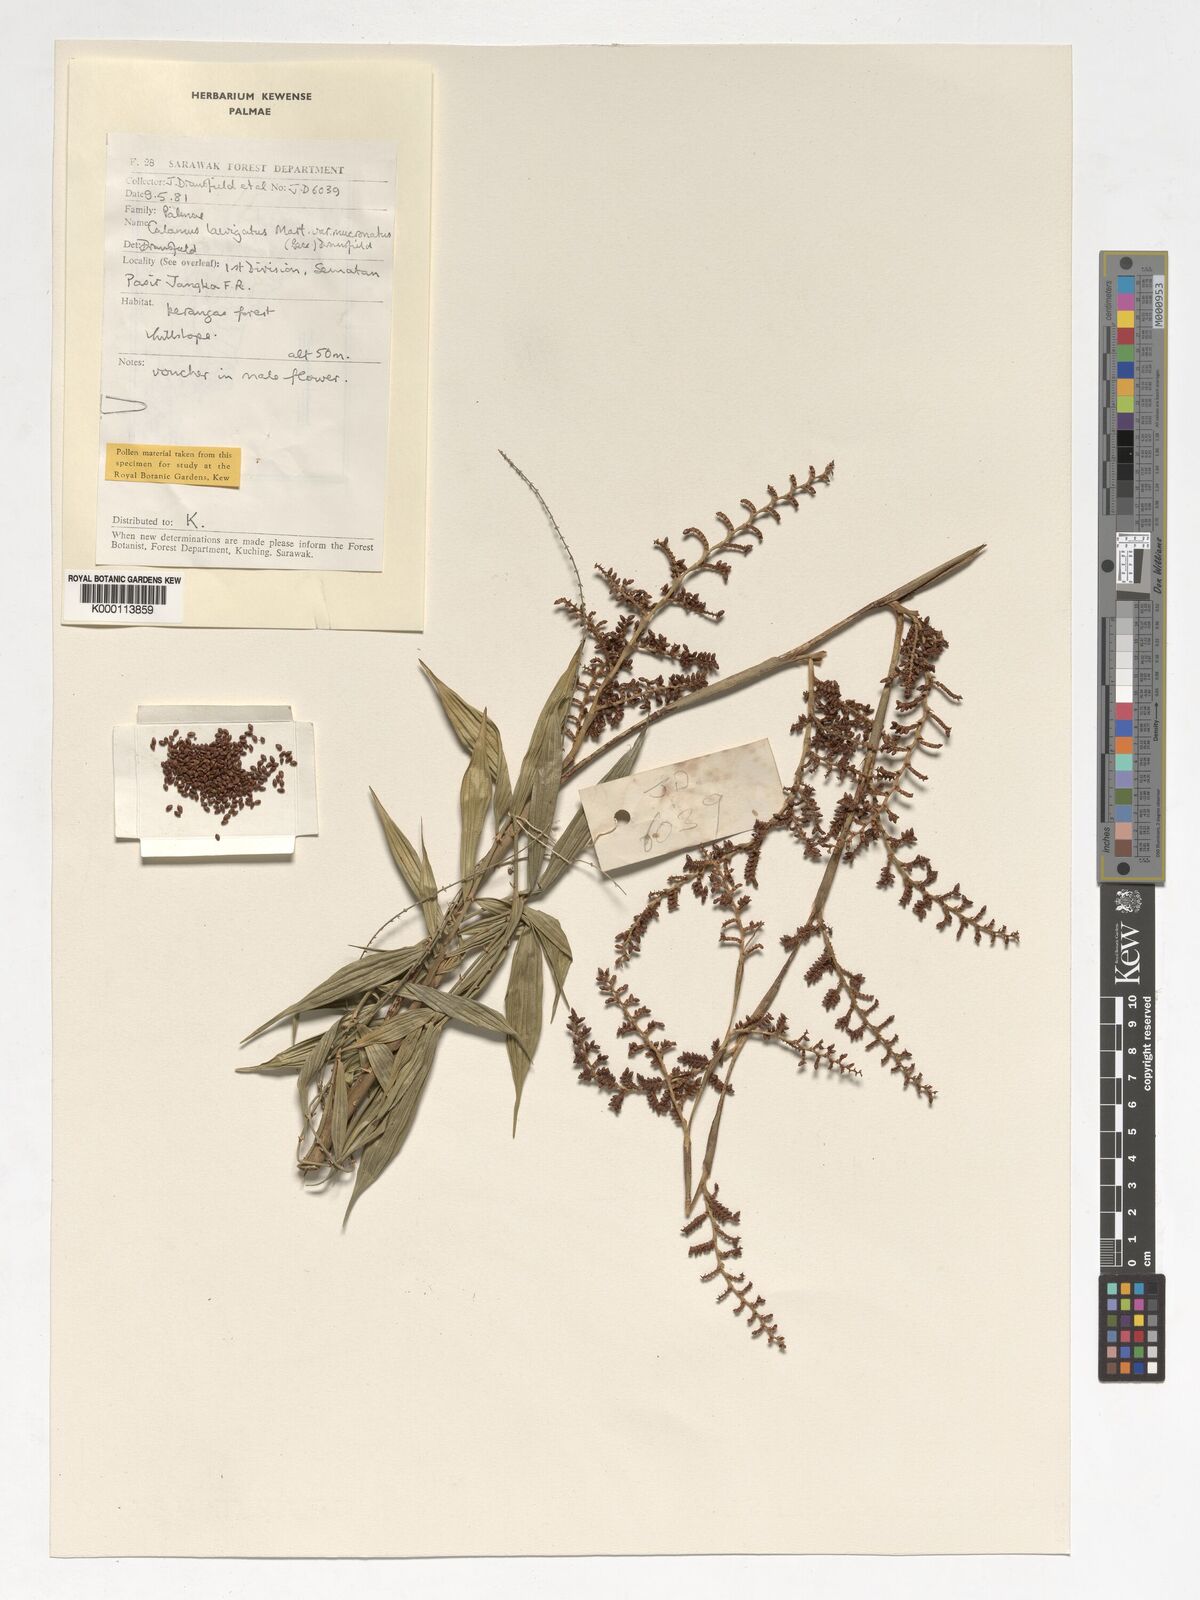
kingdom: Plantae
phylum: Tracheophyta
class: Liliopsida
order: Arecales
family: Arecaceae
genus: Calamus
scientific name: Calamus plicatus
